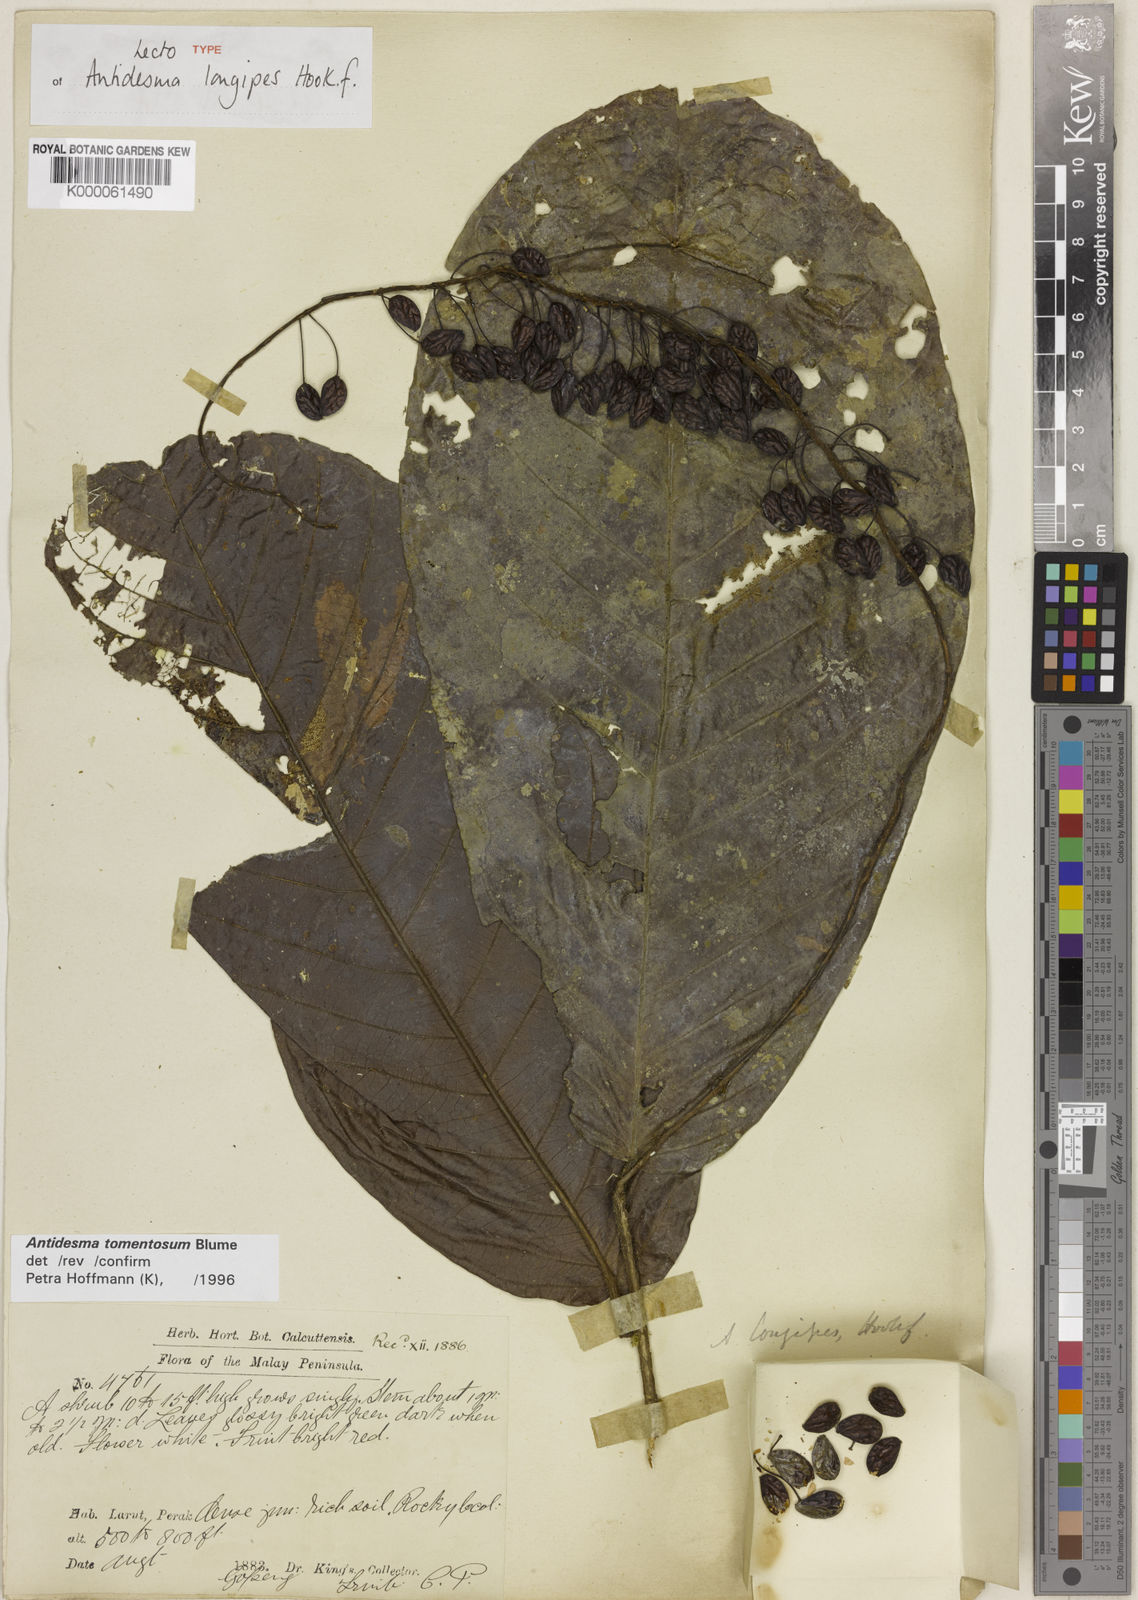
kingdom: Plantae
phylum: Tracheophyta
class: Magnoliopsida
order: Malpighiales
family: Phyllanthaceae
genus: Antidesma
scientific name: Antidesma tomentosum
